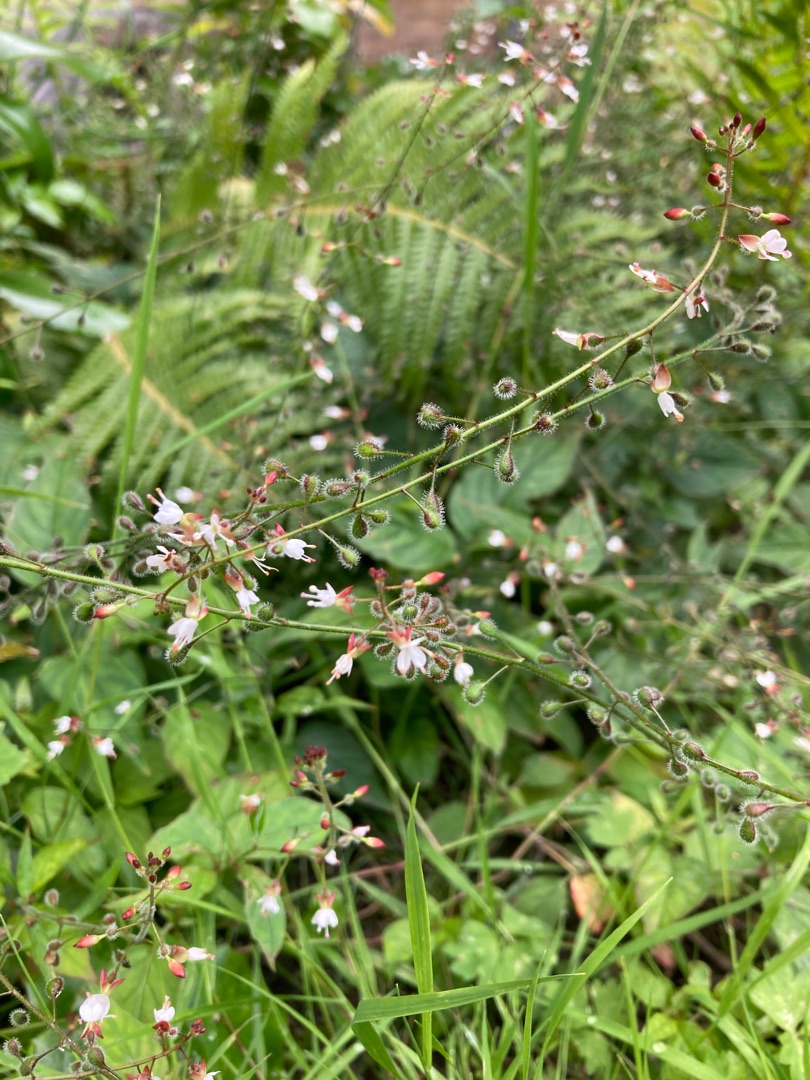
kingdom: Plantae
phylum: Tracheophyta
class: Magnoliopsida
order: Myrtales
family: Onagraceae
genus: Circaea
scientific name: Circaea lutetiana
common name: Dunet steffensurt
